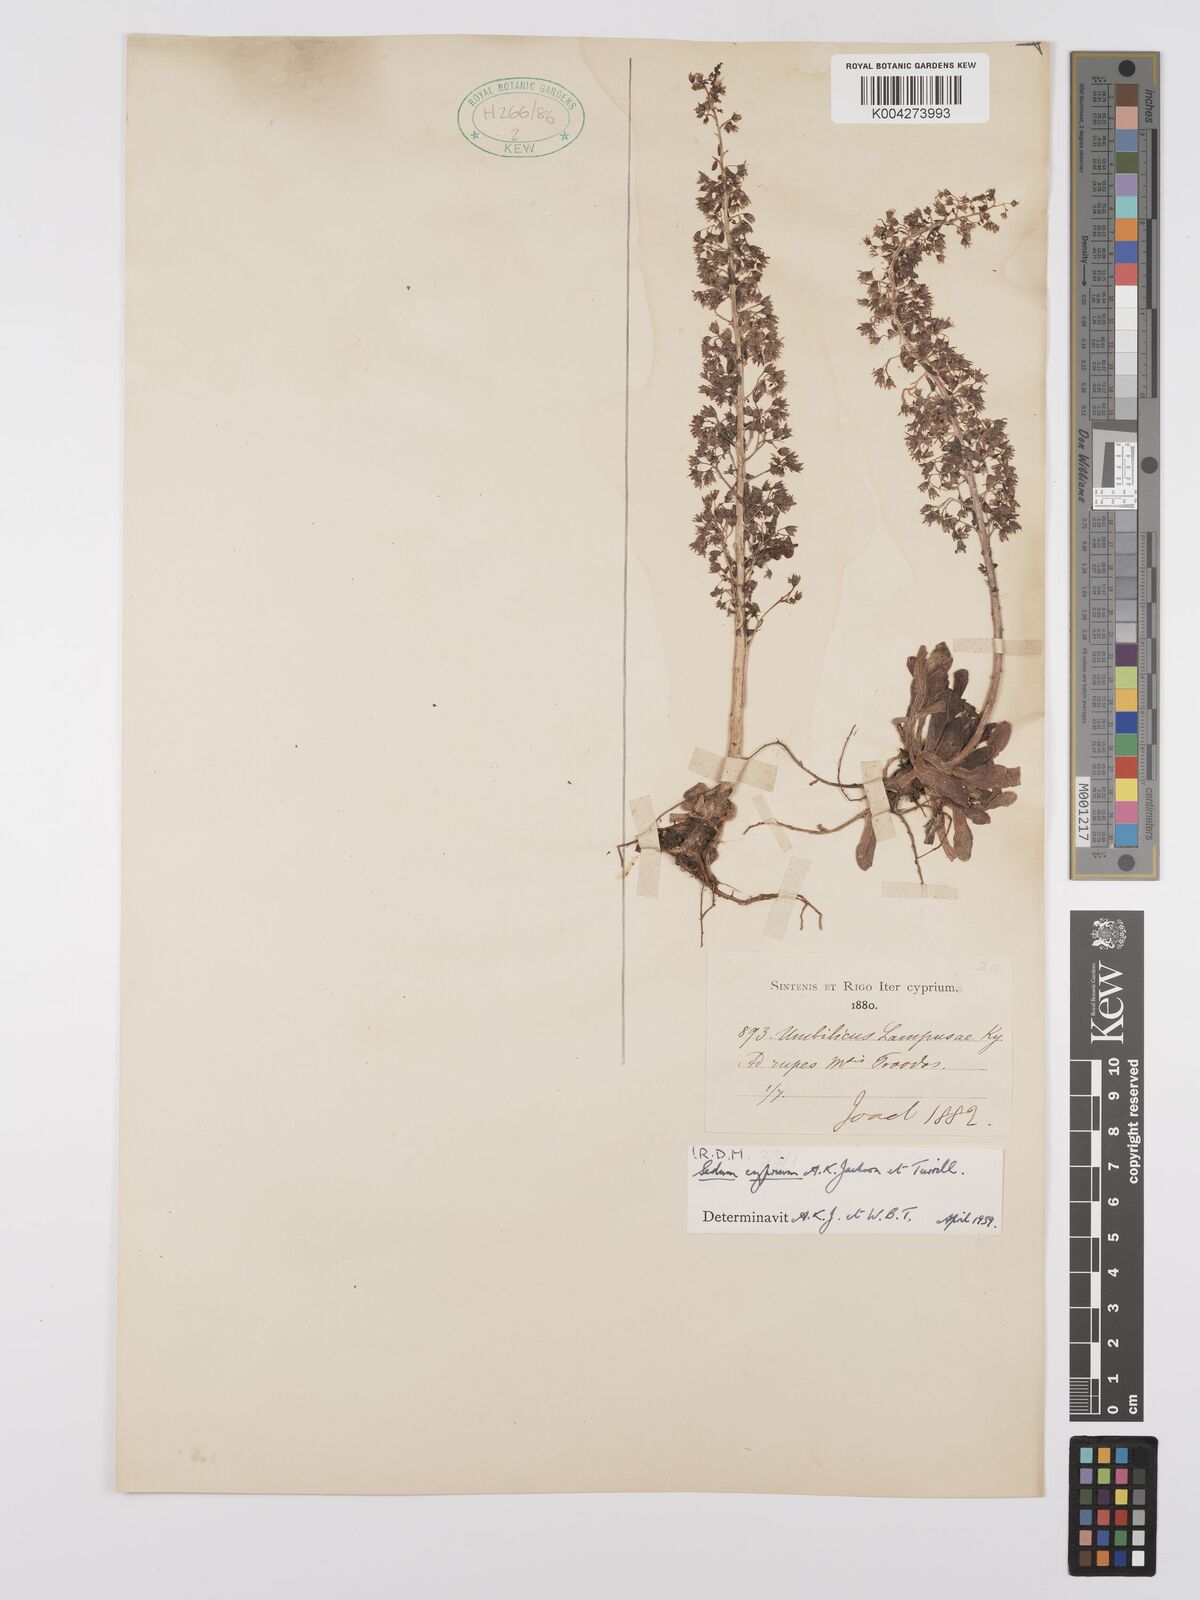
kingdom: Plantae
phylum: Tracheophyta
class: Magnoliopsida
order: Saxifragales
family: Crassulaceae
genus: Sedum
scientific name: Sedum cyprium
